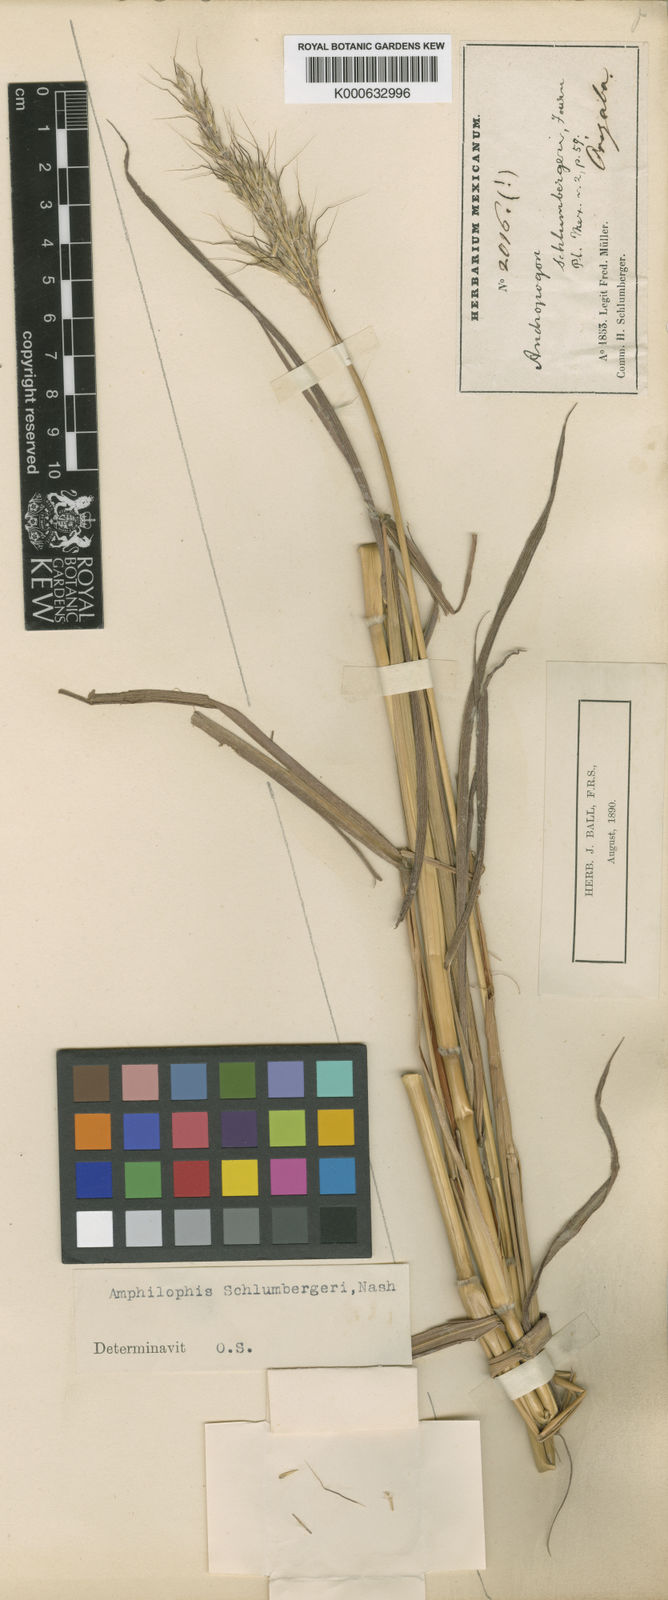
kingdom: Plantae
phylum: Tracheophyta
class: Liliopsida
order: Poales
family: Poaceae
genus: Bothriochloa
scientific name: Bothriochloa barbinodis
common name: Cane bluestem
